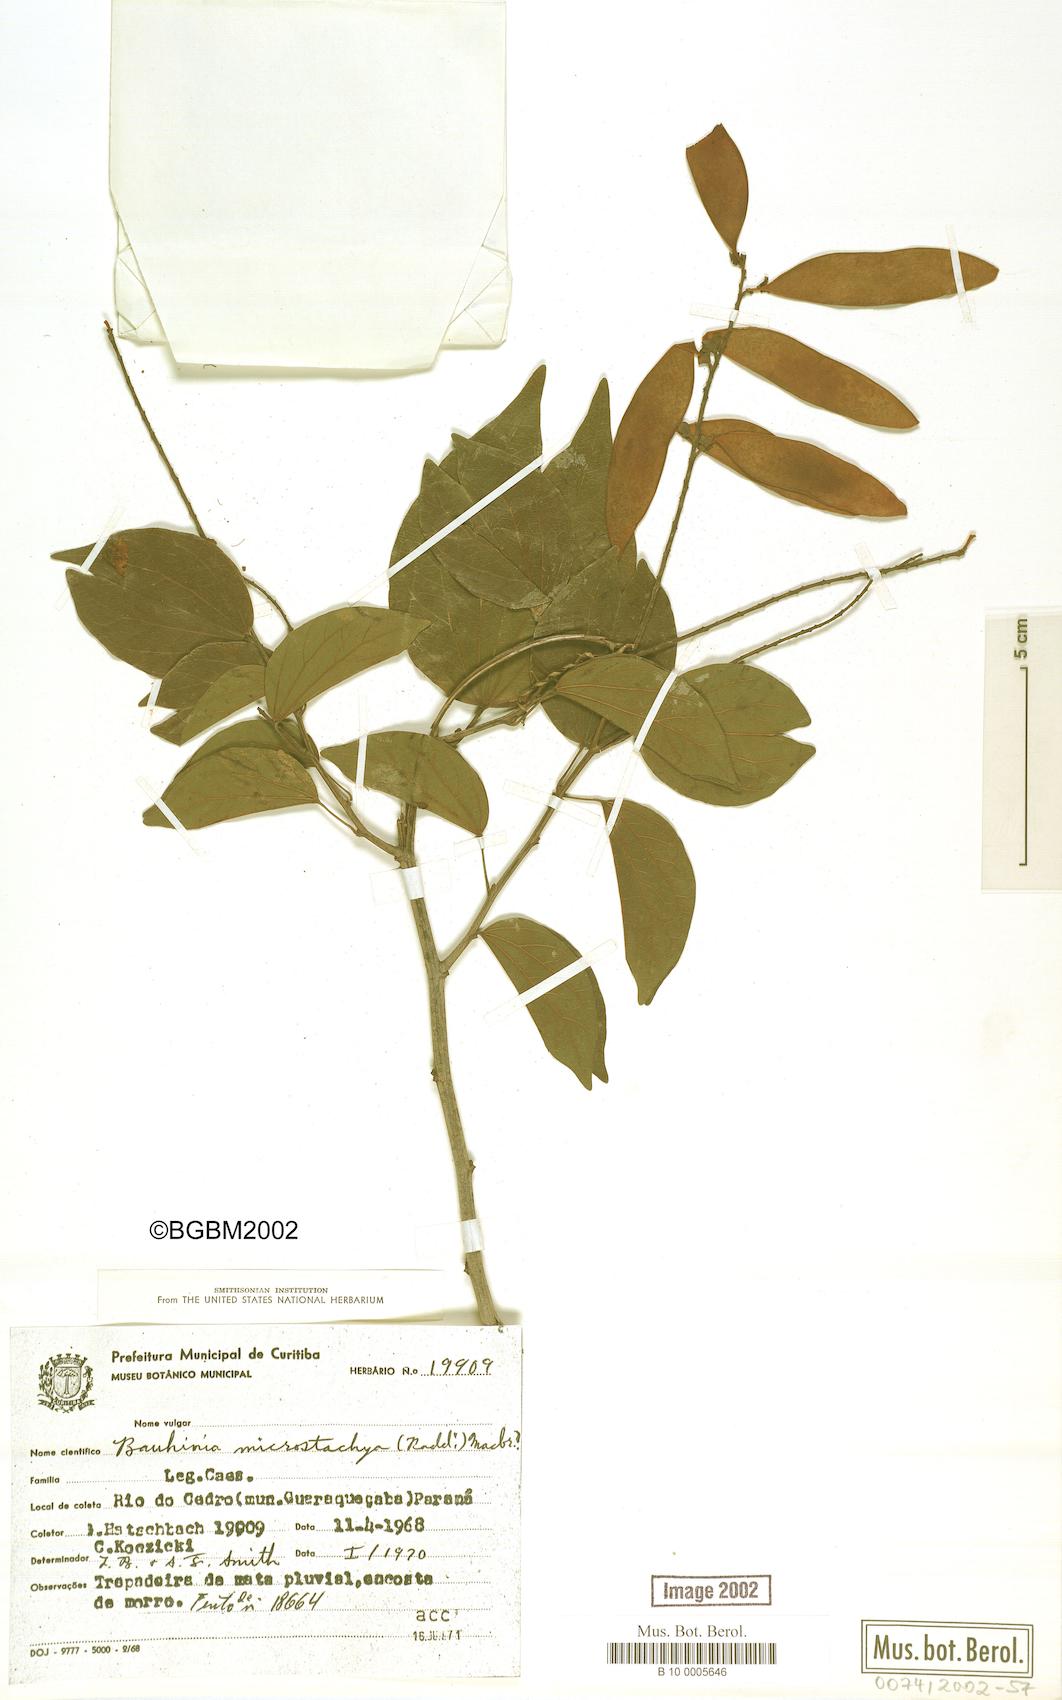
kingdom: Plantae
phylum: Tracheophyta
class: Magnoliopsida
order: Fabales
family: Fabaceae
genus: Schnella
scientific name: Schnella microstachya
